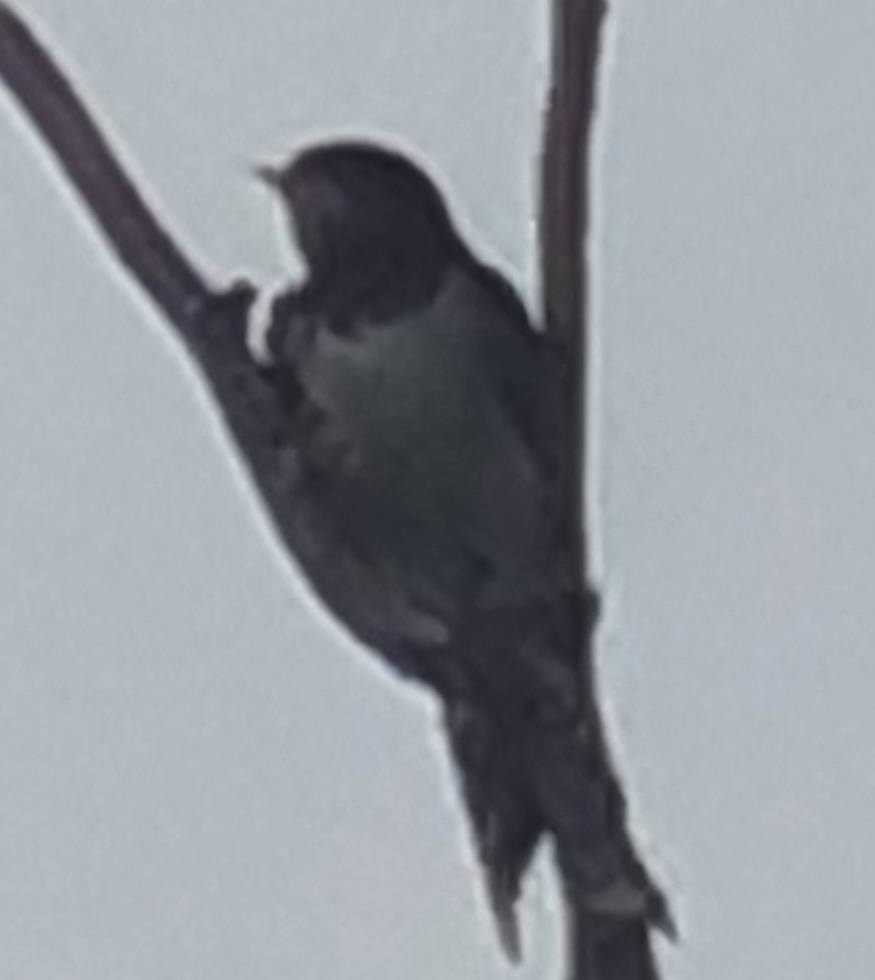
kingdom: Animalia
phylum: Chordata
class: Aves
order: Passeriformes
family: Hirundinidae
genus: Hirundo
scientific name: Hirundo rustica
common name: Landsvale
